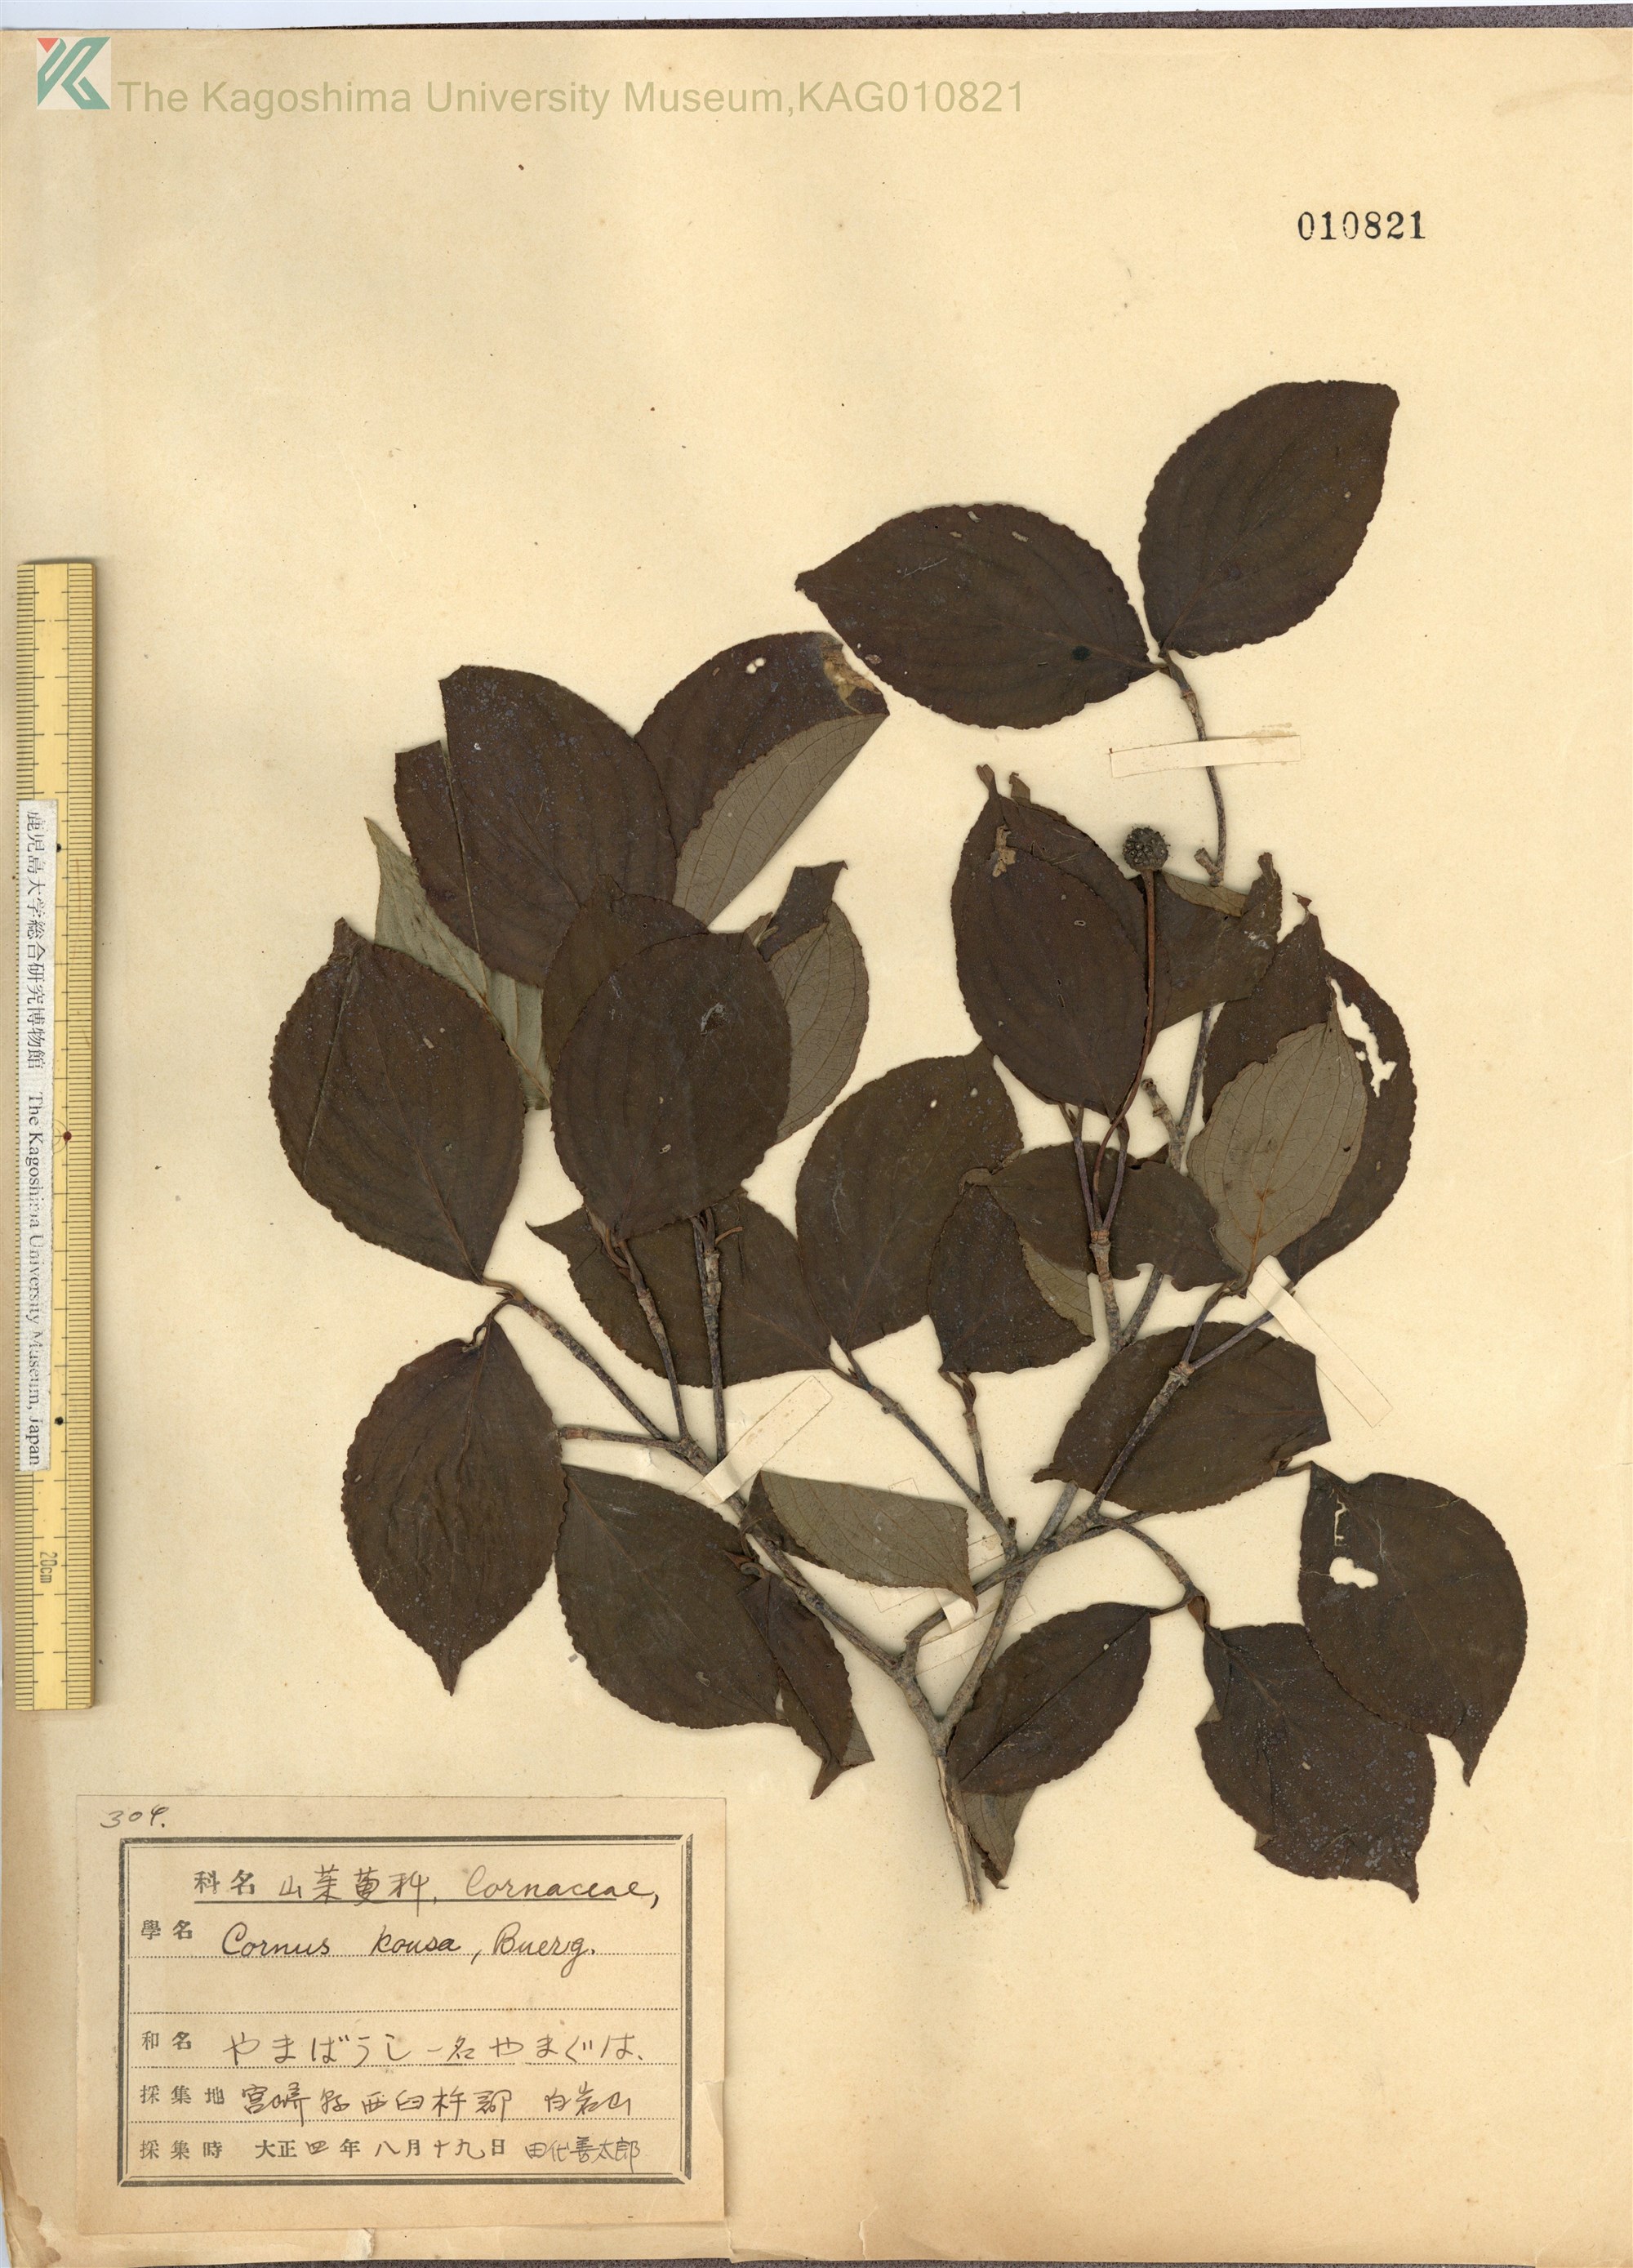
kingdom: Plantae
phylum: Tracheophyta
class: Magnoliopsida
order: Cornales
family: Cornaceae
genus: Cornus
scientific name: Cornus kousa
